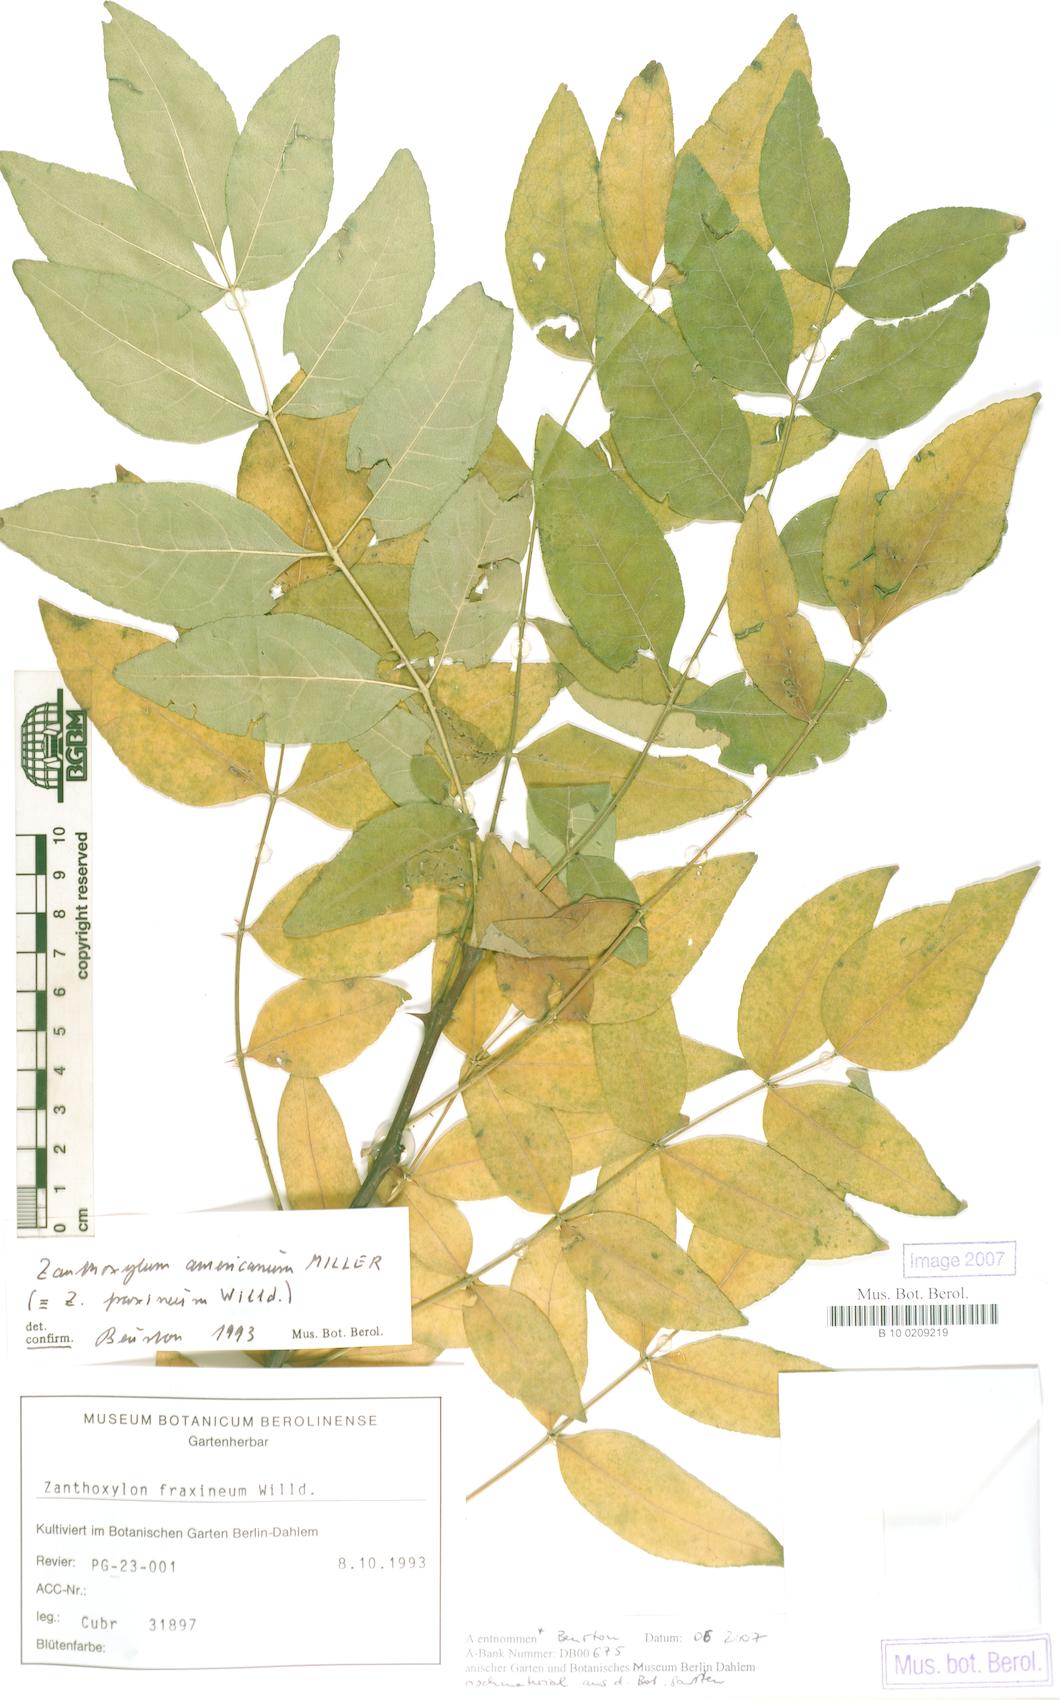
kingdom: Plantae
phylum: Tracheophyta
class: Magnoliopsida
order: Sapindales
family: Rutaceae
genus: Zanthoxylum
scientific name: Zanthoxylum americanum
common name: Northern prickly-ash
